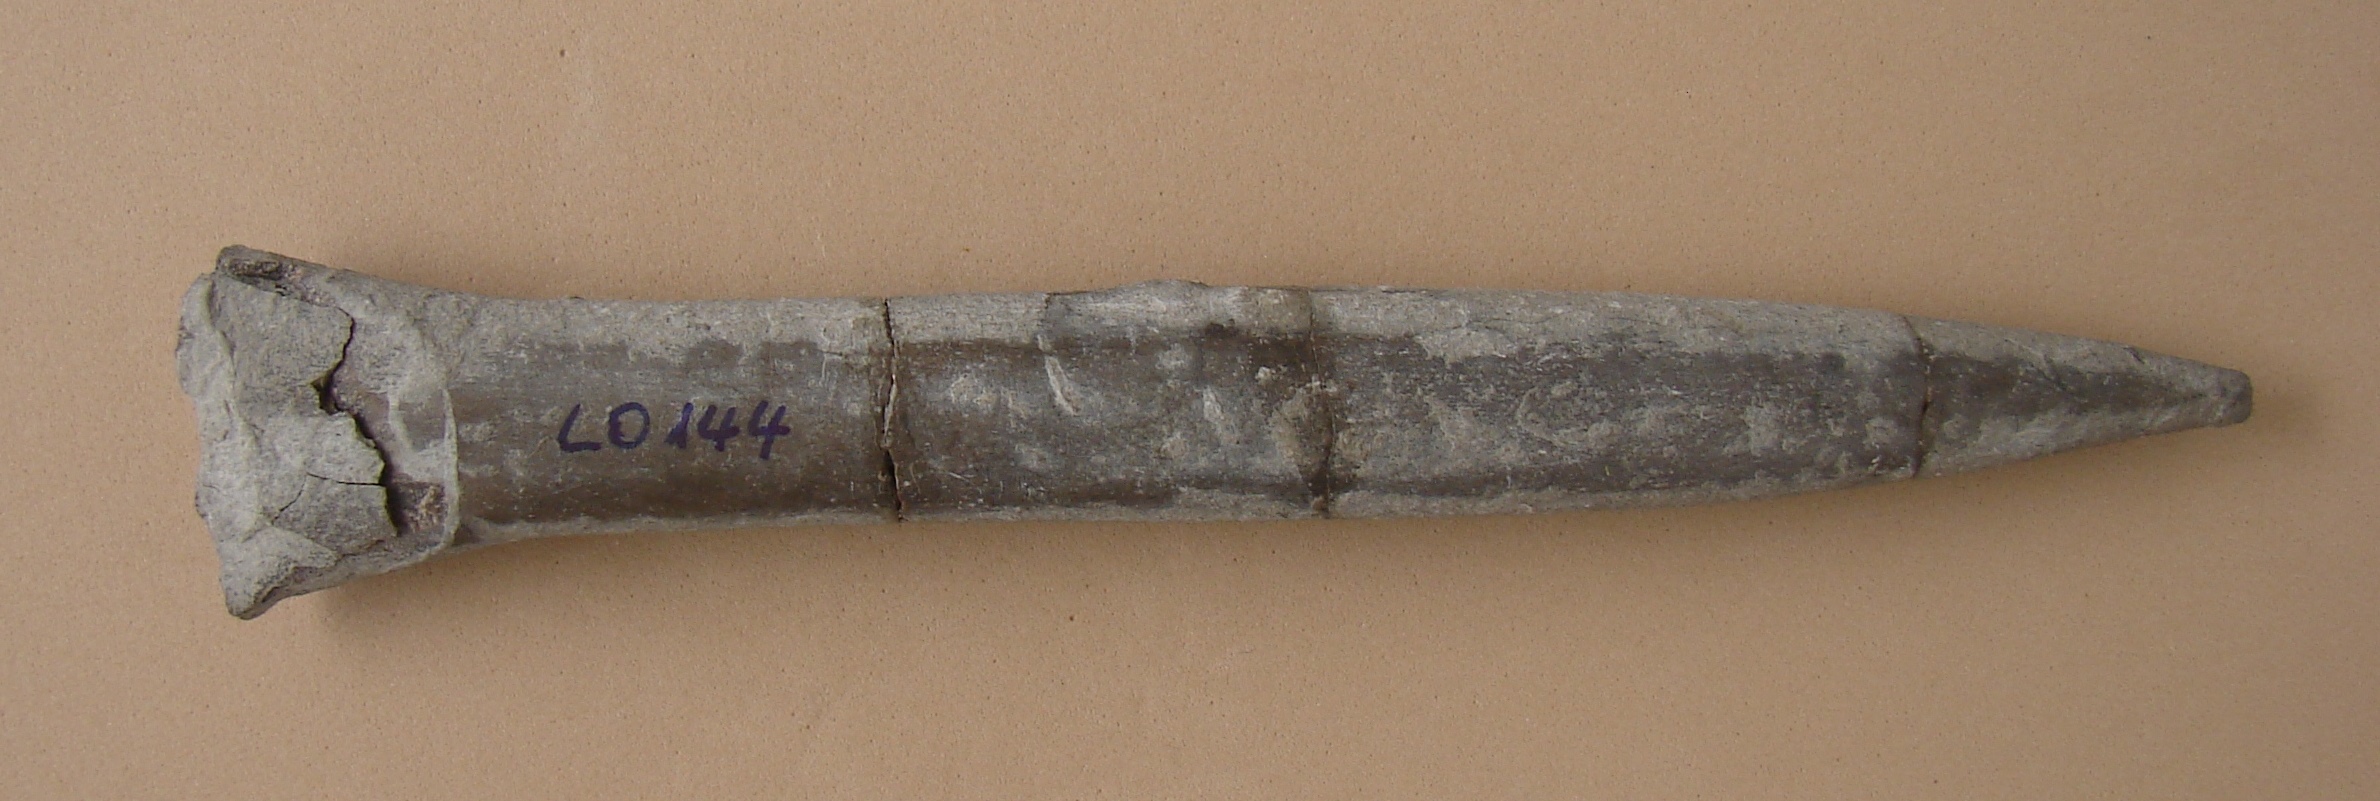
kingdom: Animalia
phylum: Mollusca
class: Cephalopoda
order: Belemnitida
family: Passaloteuthidae
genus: Passaloteuthis
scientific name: Passaloteuthis bisulcata
